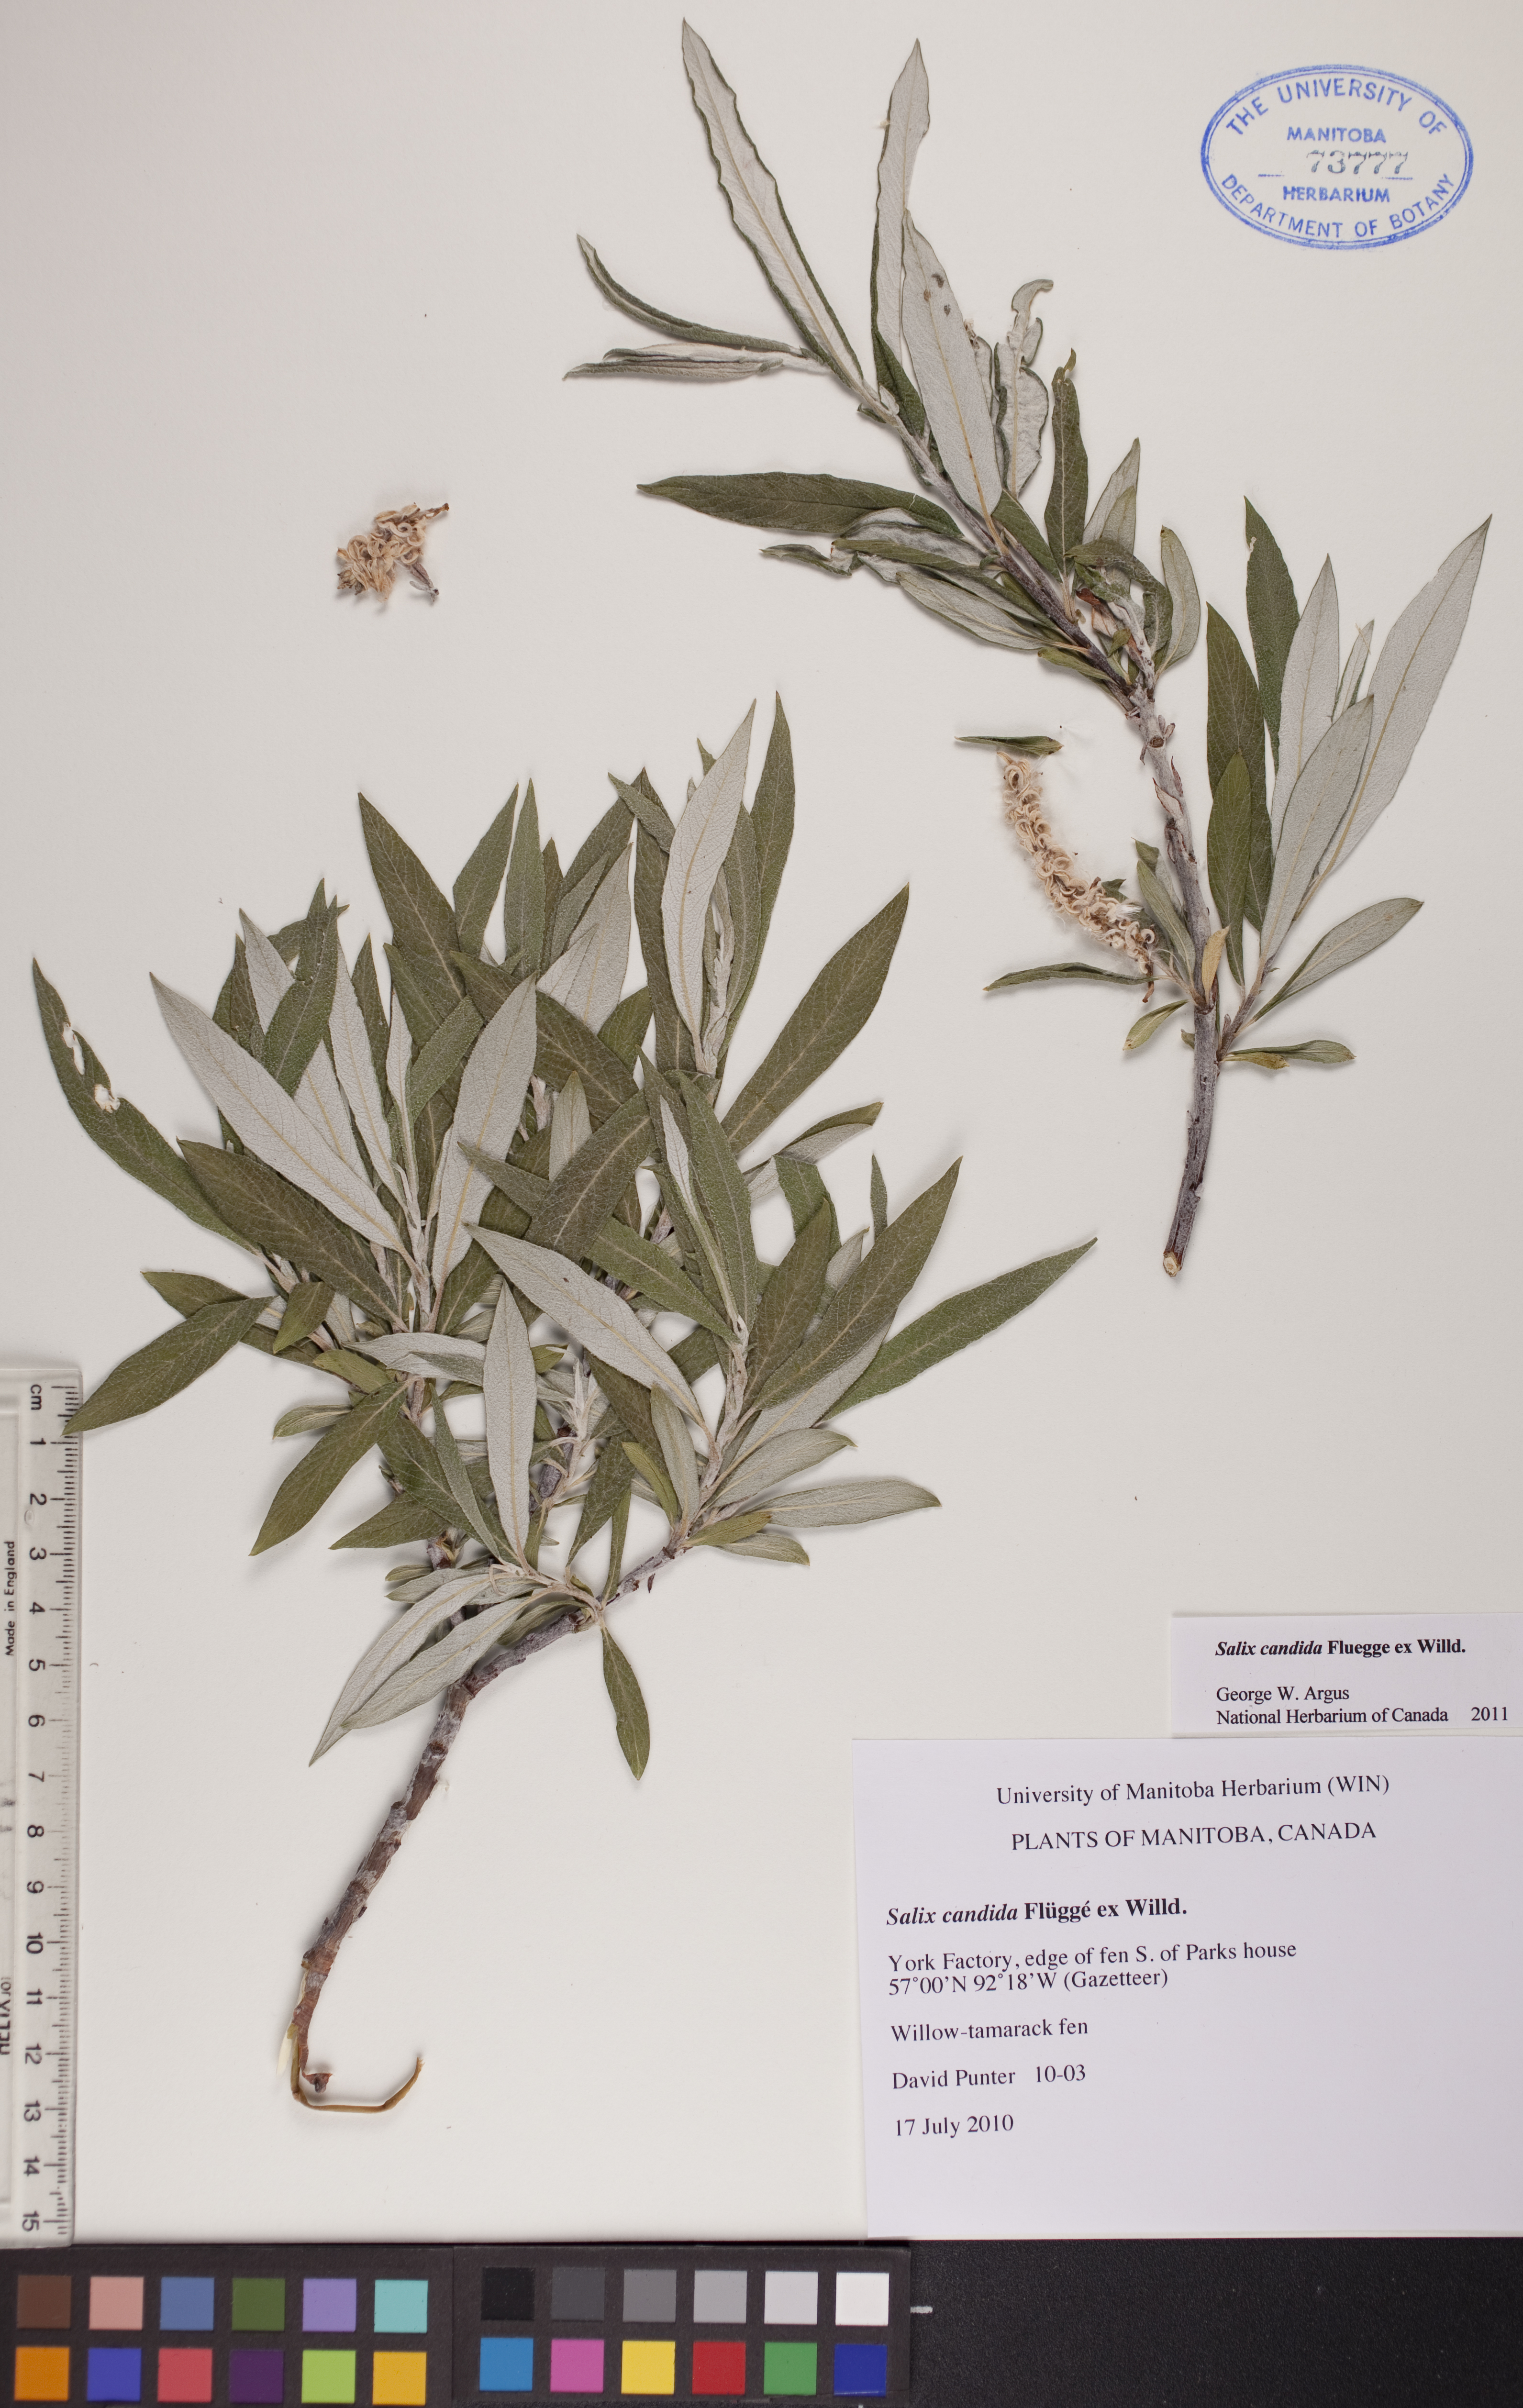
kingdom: Plantae
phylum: Tracheophyta
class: Magnoliopsida
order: Malpighiales
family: Salicaceae
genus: Salix
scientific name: Salix candida
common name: Hoary willow
